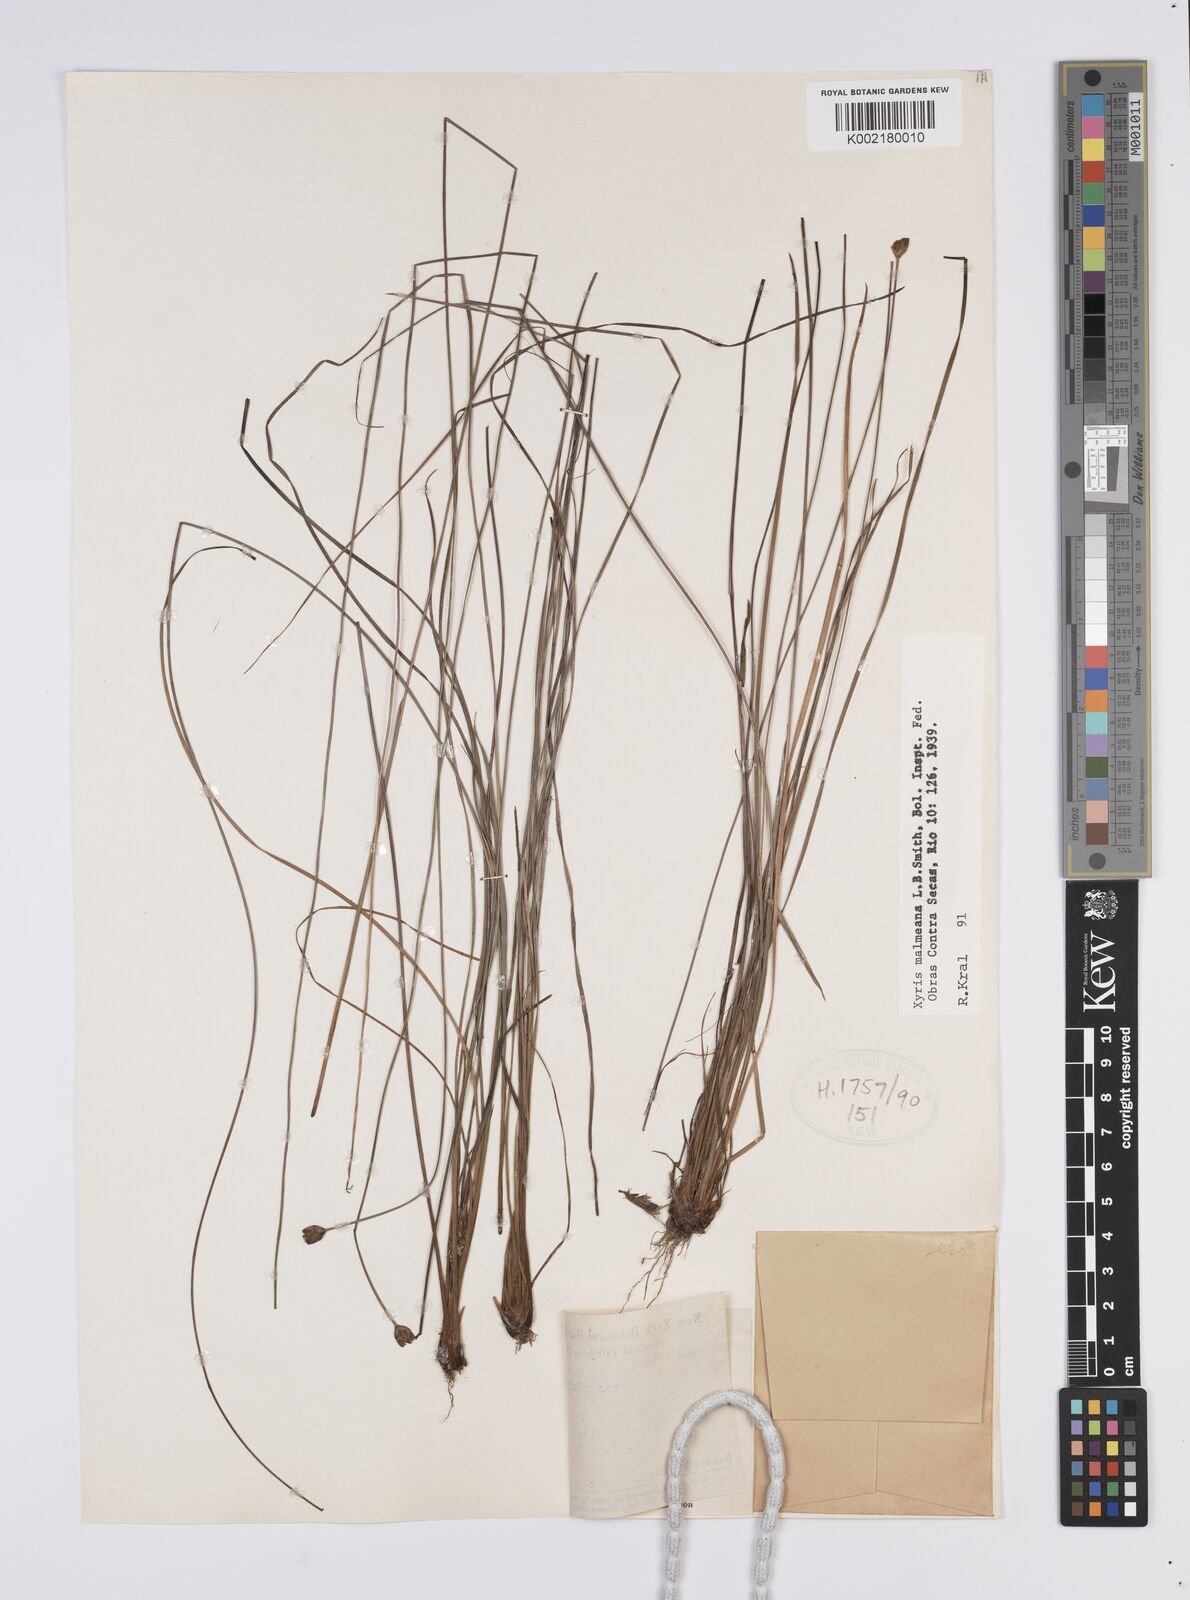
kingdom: Plantae
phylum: Tracheophyta
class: Liliopsida
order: Poales
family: Xyridaceae
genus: Xyris
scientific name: Xyris malmeana
